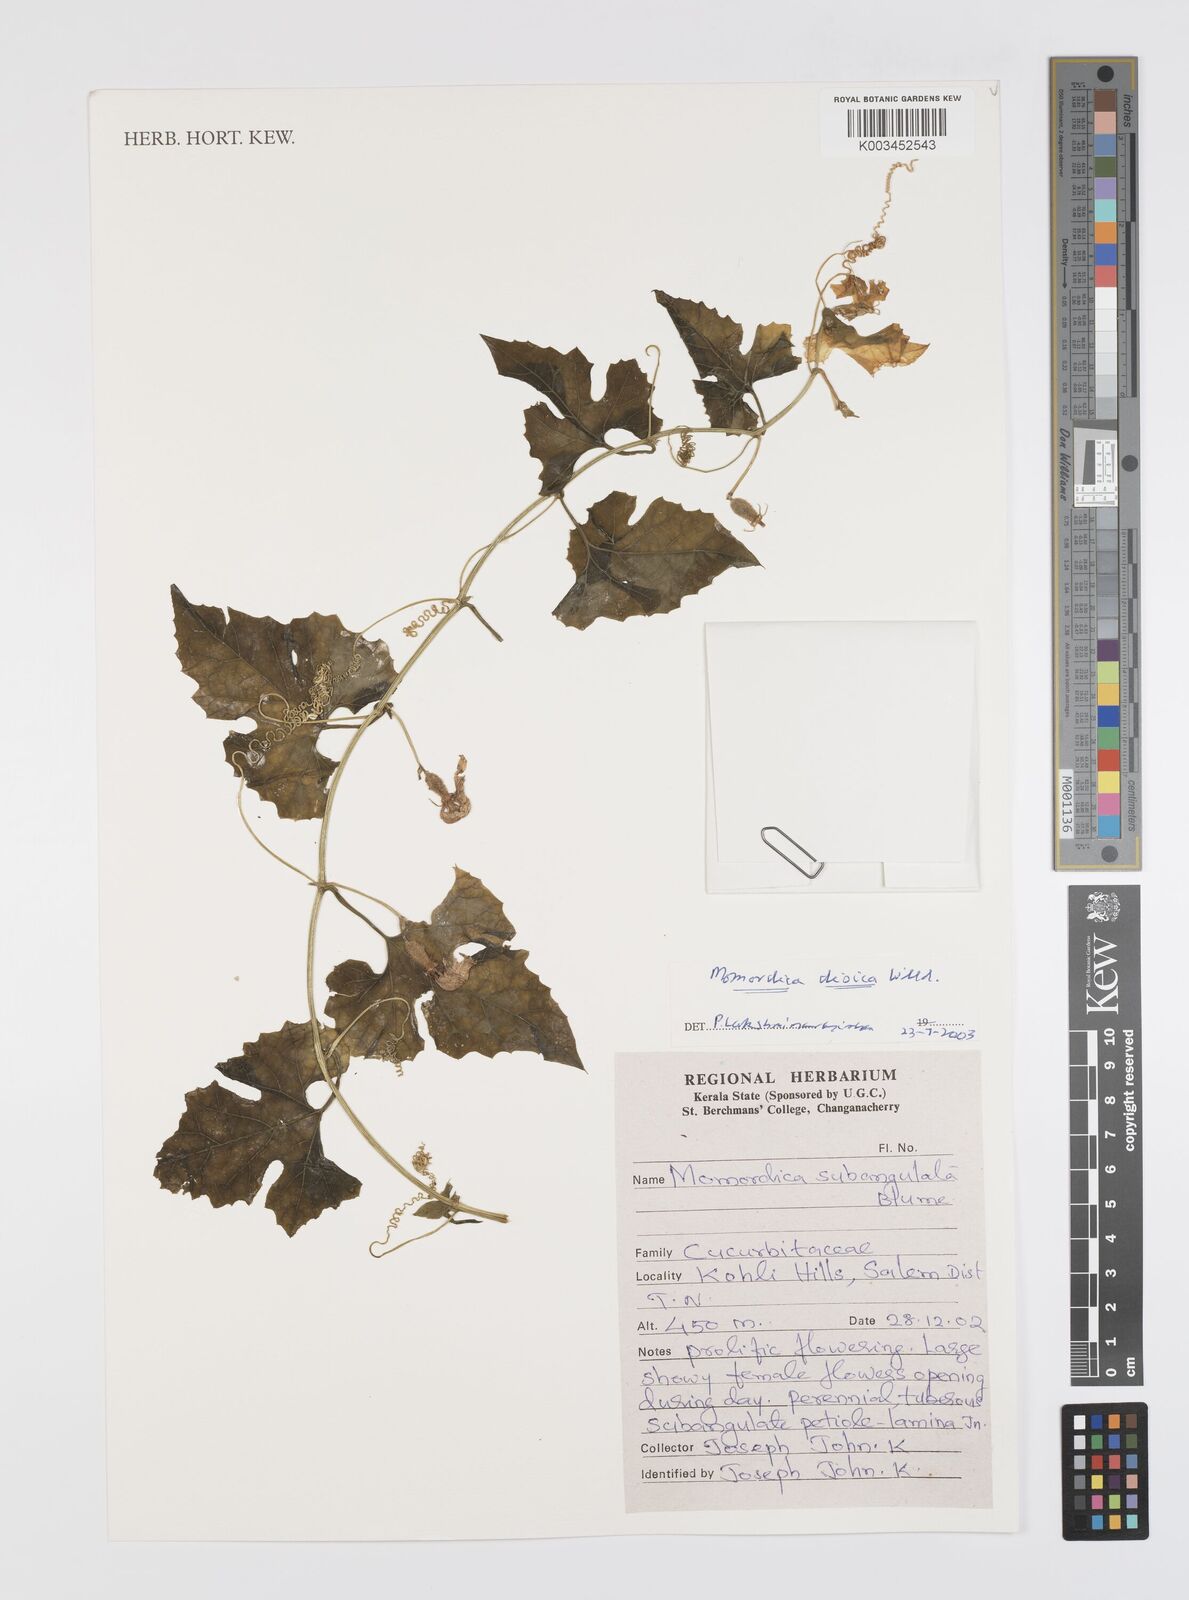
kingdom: Plantae
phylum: Tracheophyta
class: Magnoliopsida
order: Cucurbitales
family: Cucurbitaceae
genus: Momordica
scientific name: Momordica dioica
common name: Spine gourd
